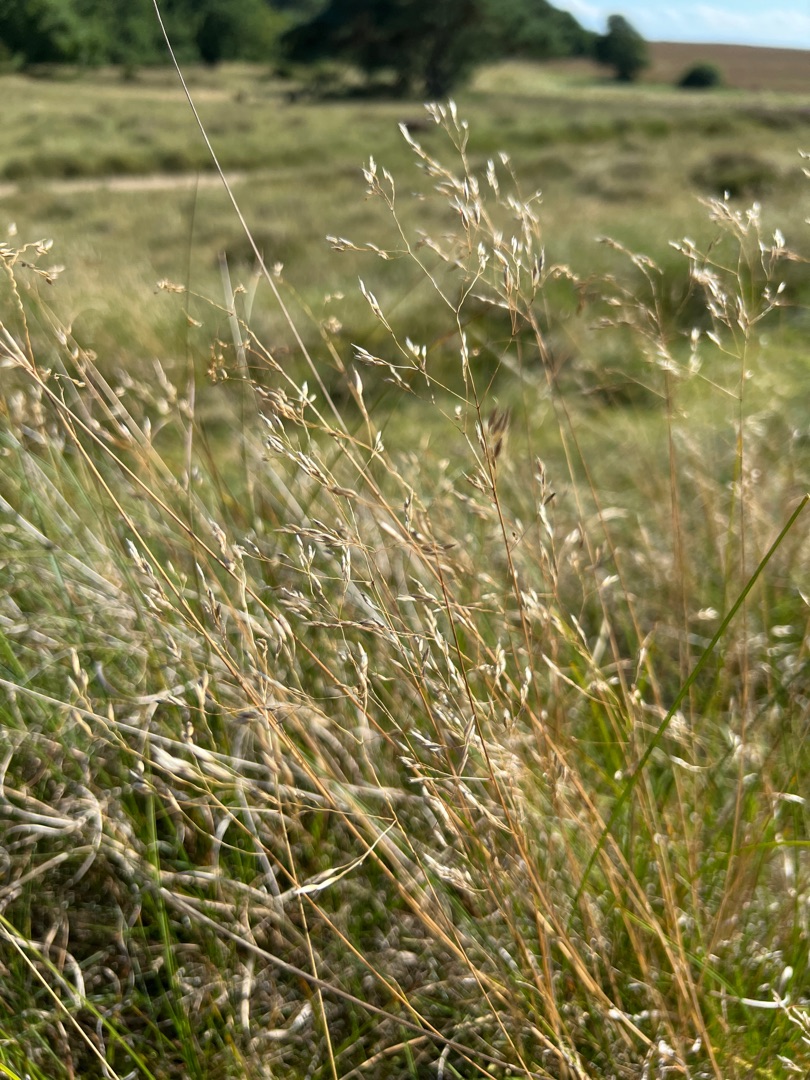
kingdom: Plantae
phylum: Tracheophyta
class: Liliopsida
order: Poales
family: Poaceae
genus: Avenella
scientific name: Avenella flexuosa
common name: Bølget bunke
